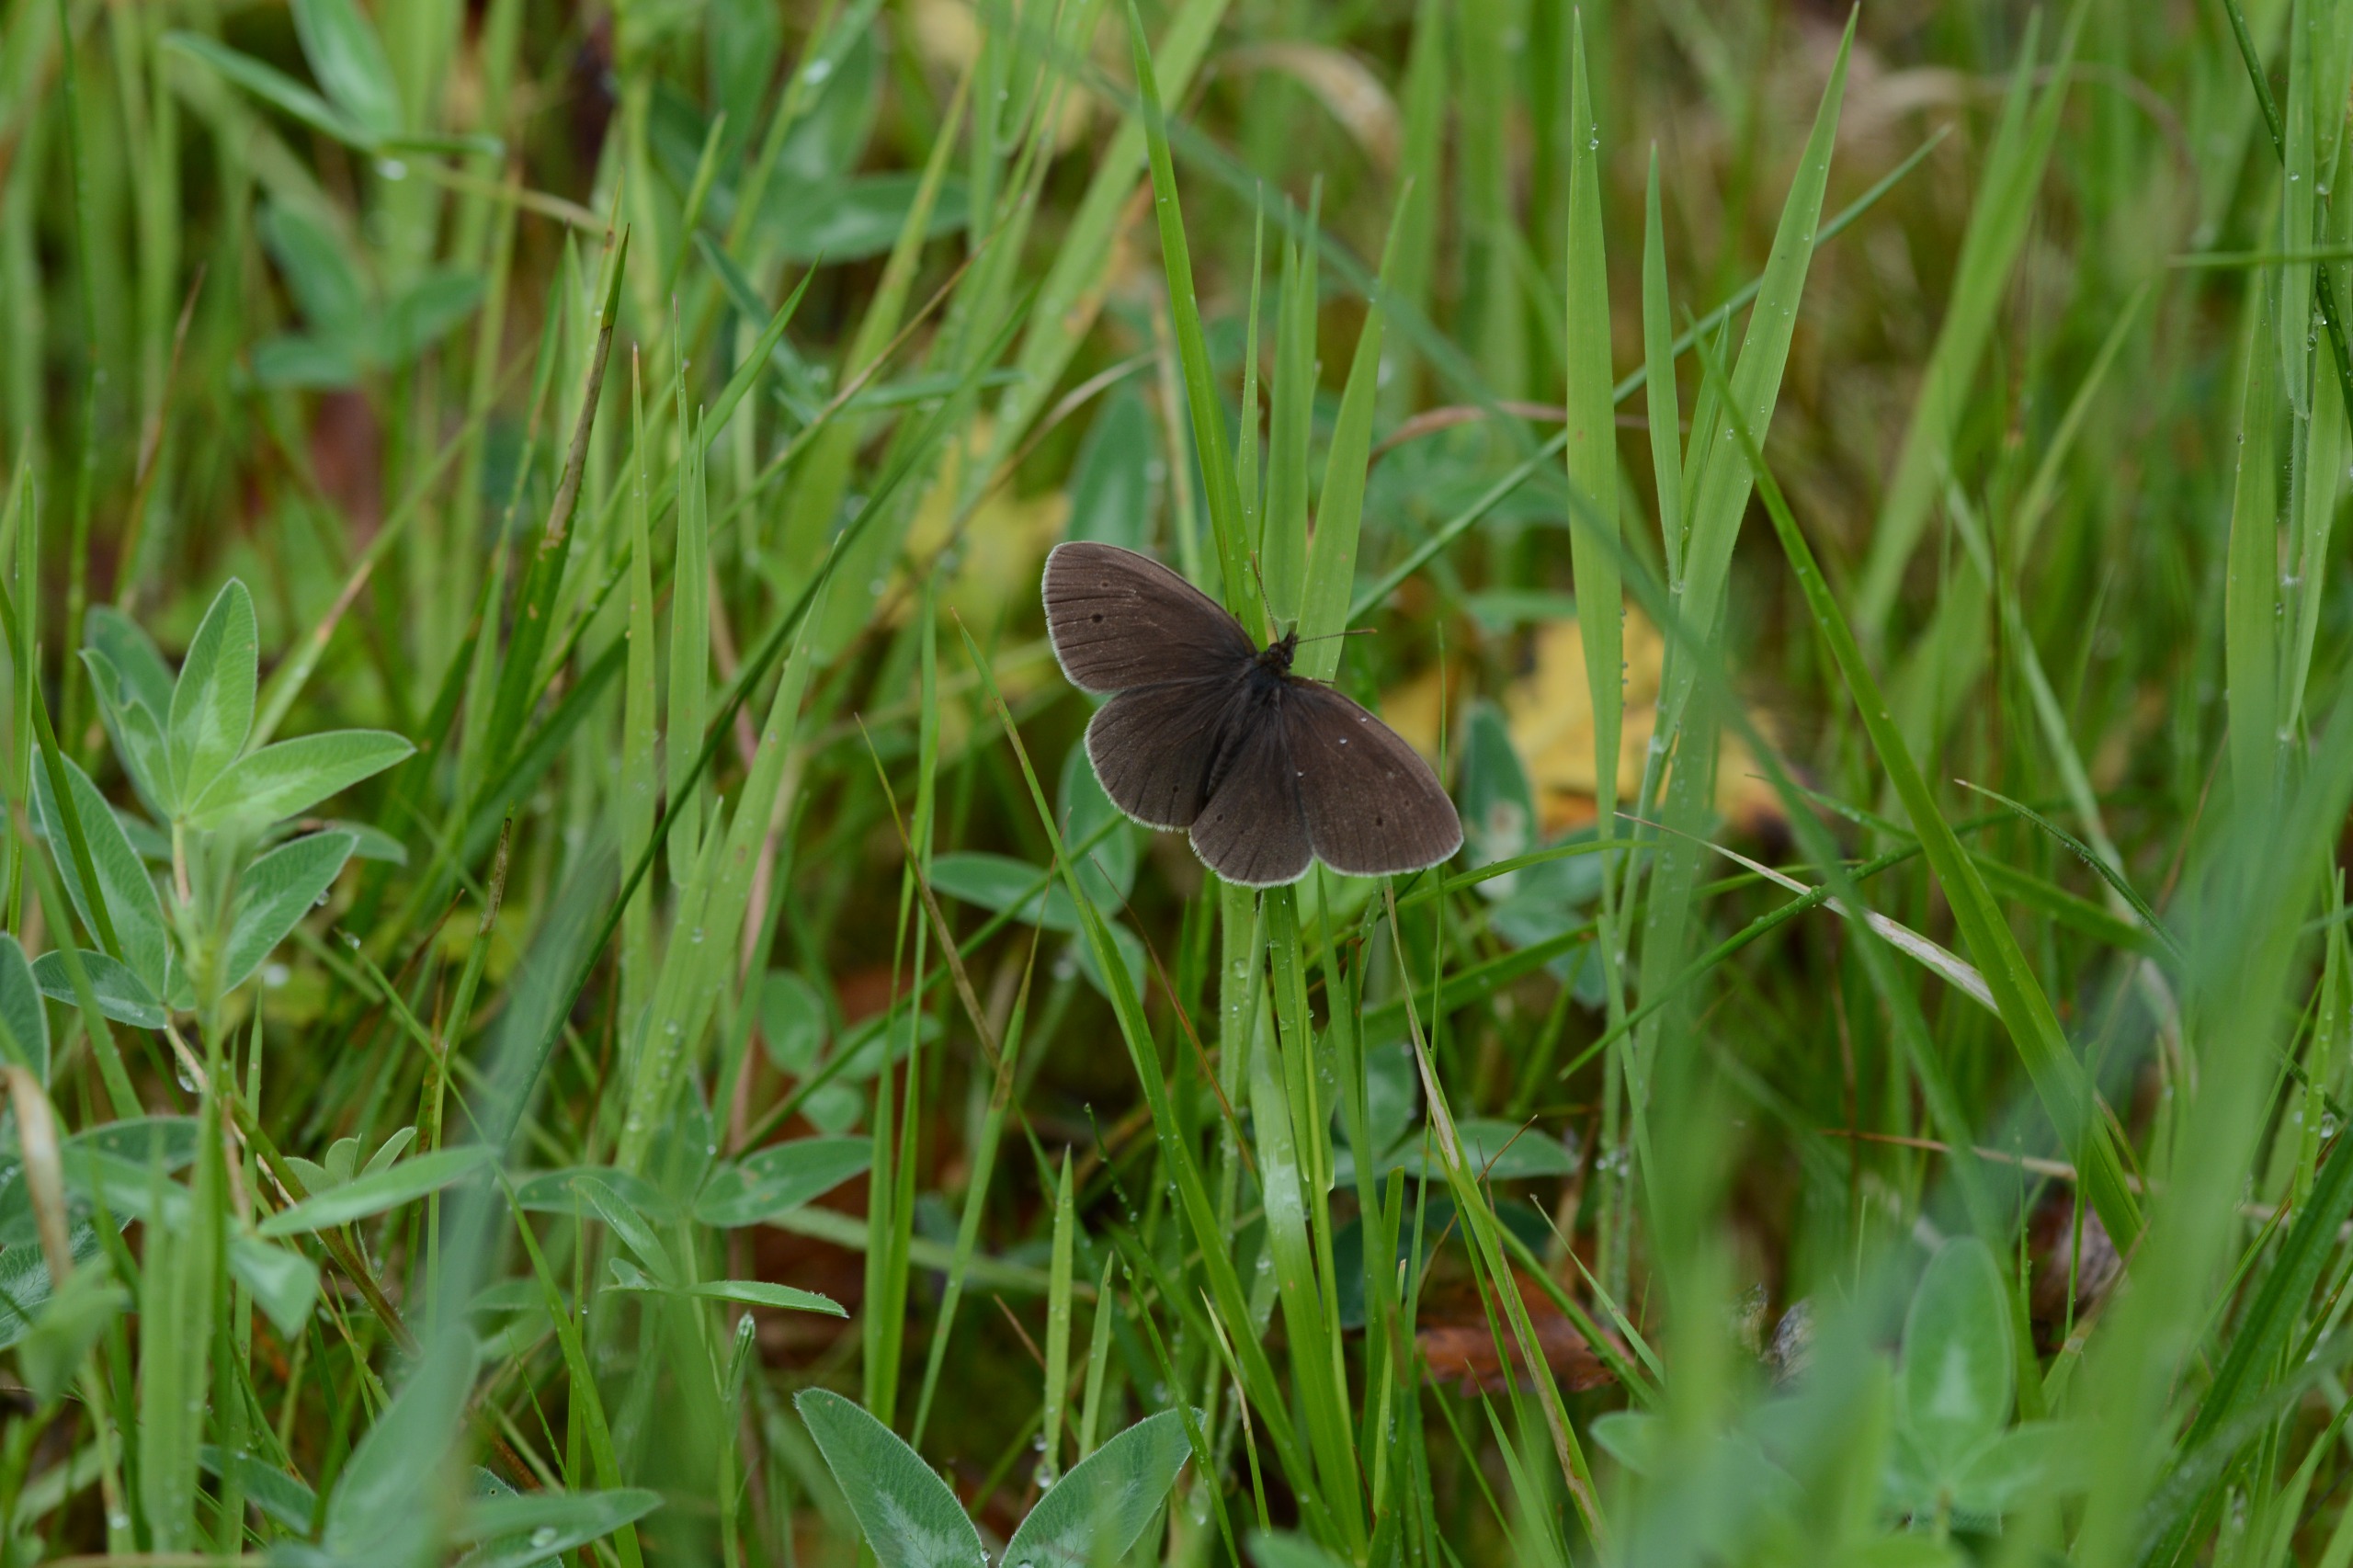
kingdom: Animalia
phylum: Arthropoda
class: Insecta
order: Lepidoptera
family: Nymphalidae
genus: Aphantopus
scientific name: Aphantopus hyperantus
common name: Engrandøje
